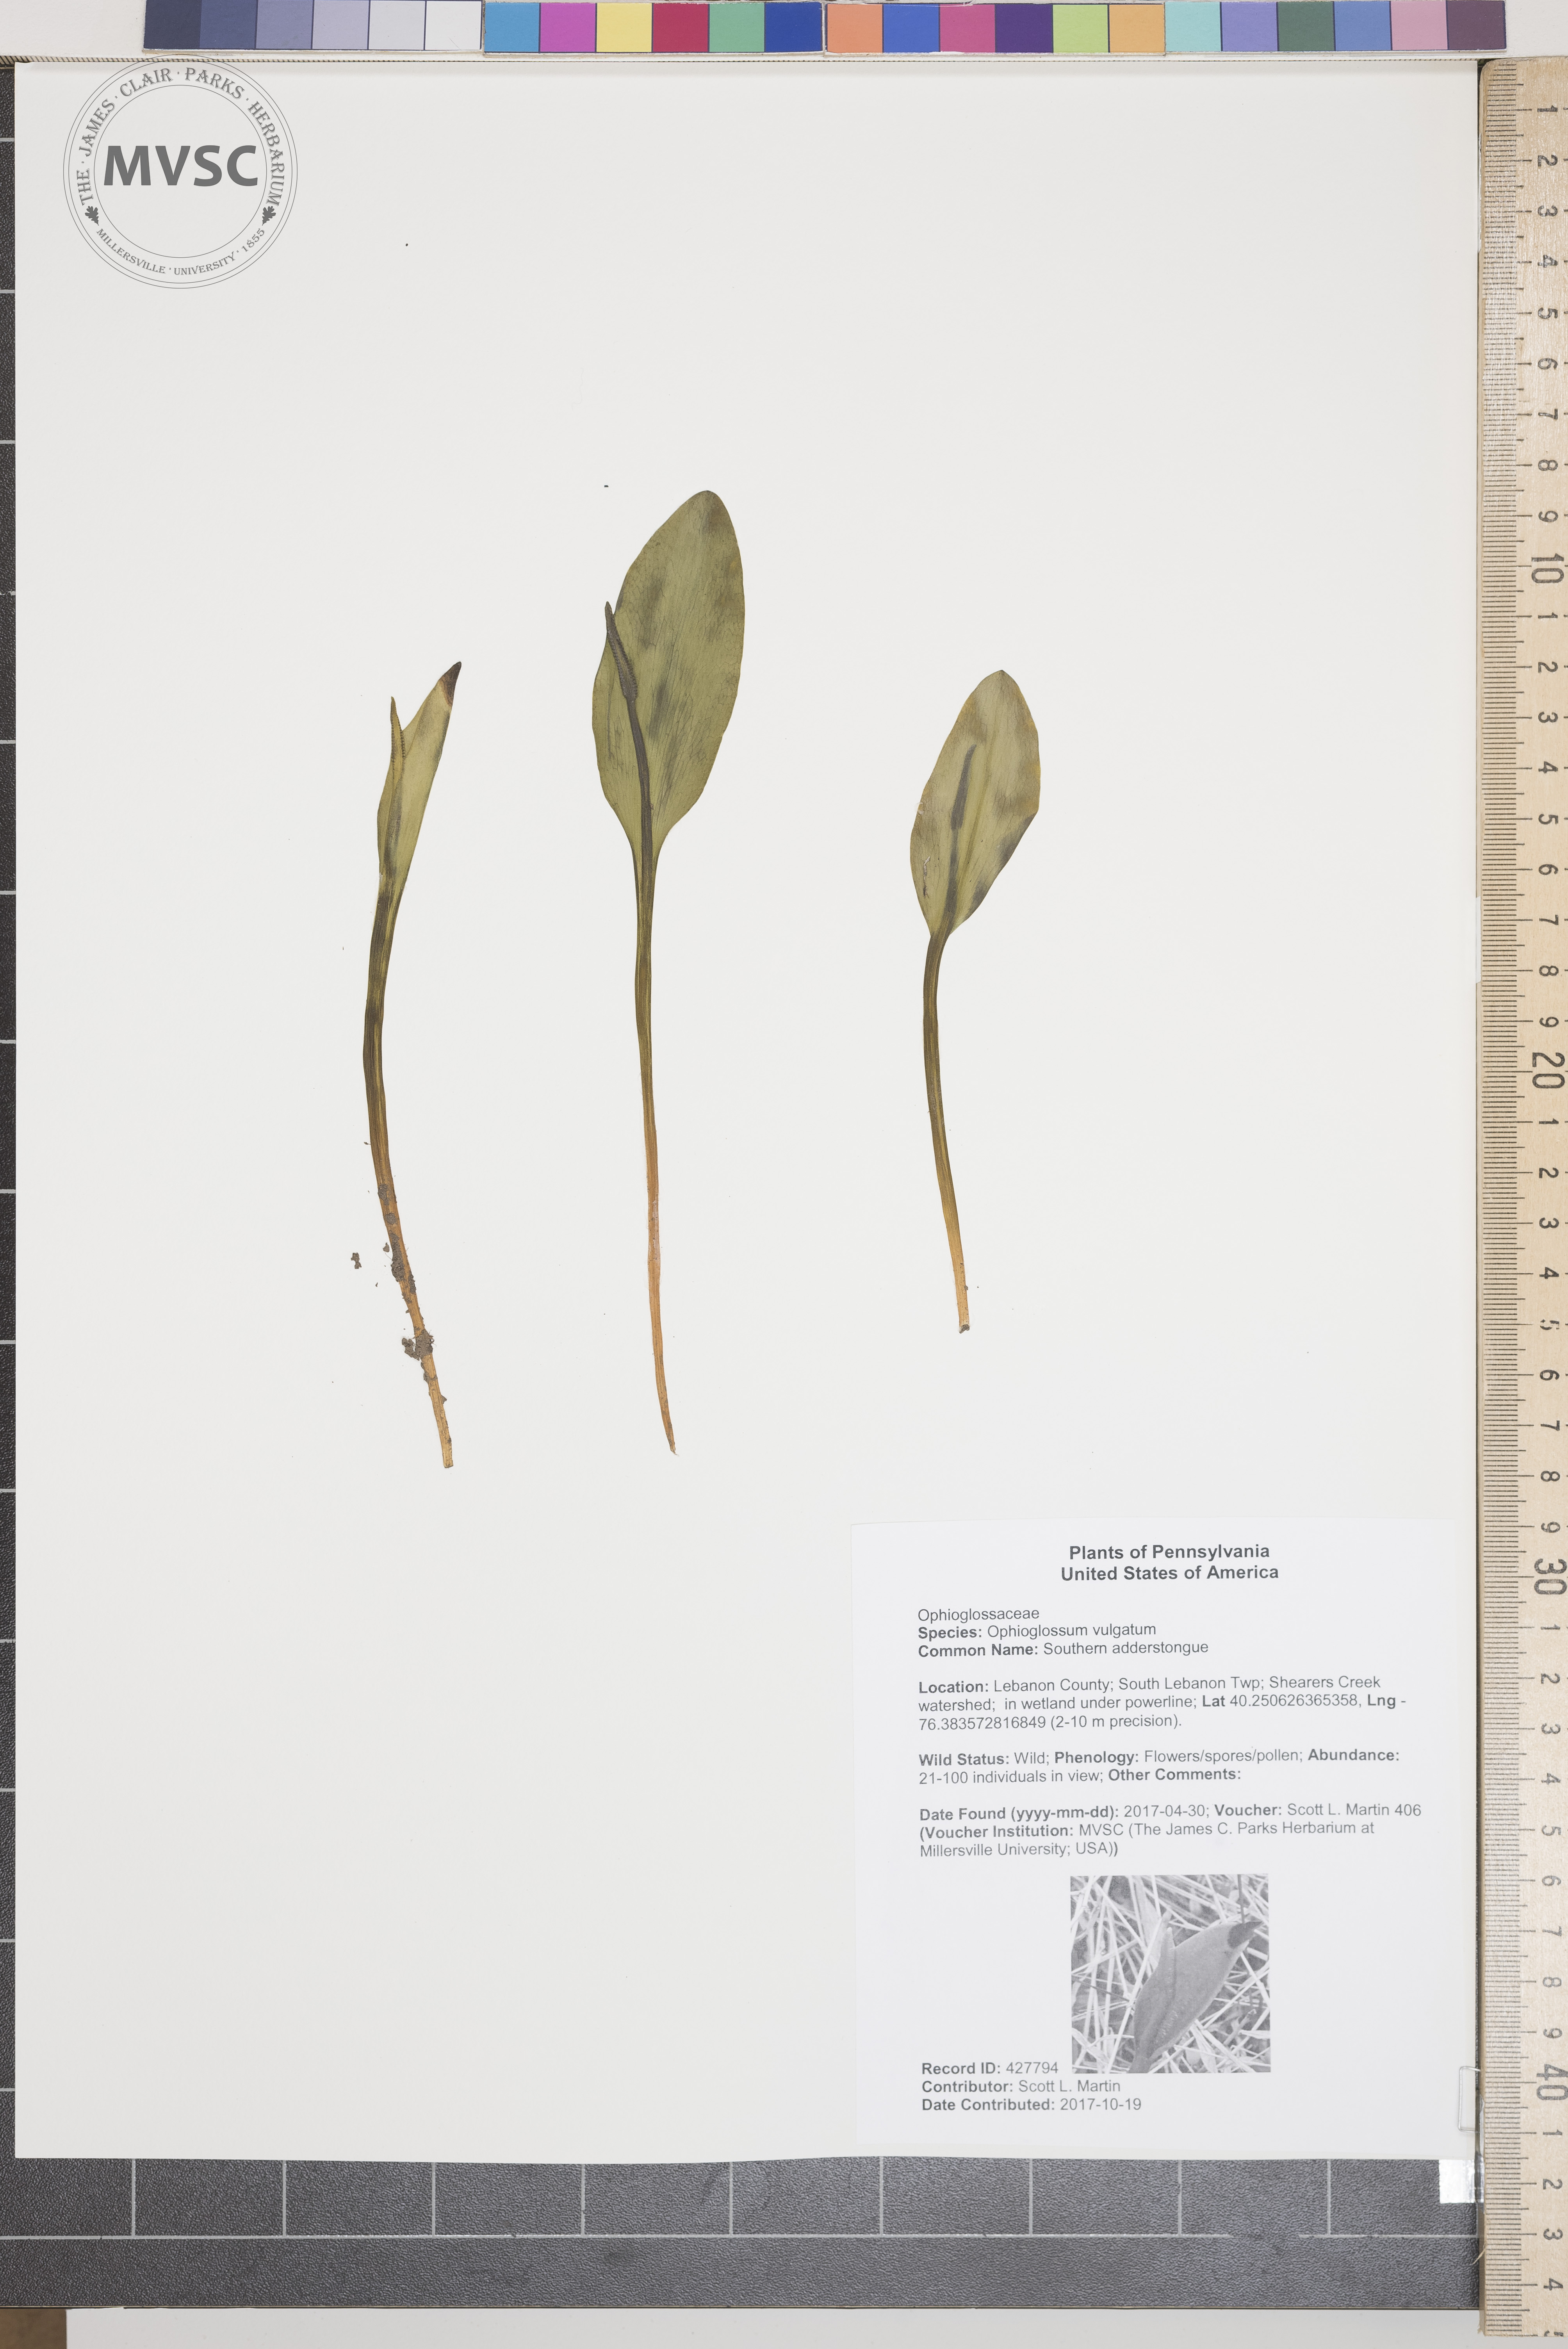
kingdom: Plantae
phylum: Tracheophyta
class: Polypodiopsida
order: Ophioglossales
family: Ophioglossaceae
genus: Ophioglossum
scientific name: Ophioglossum vulgatum
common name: Southern adderstongue
